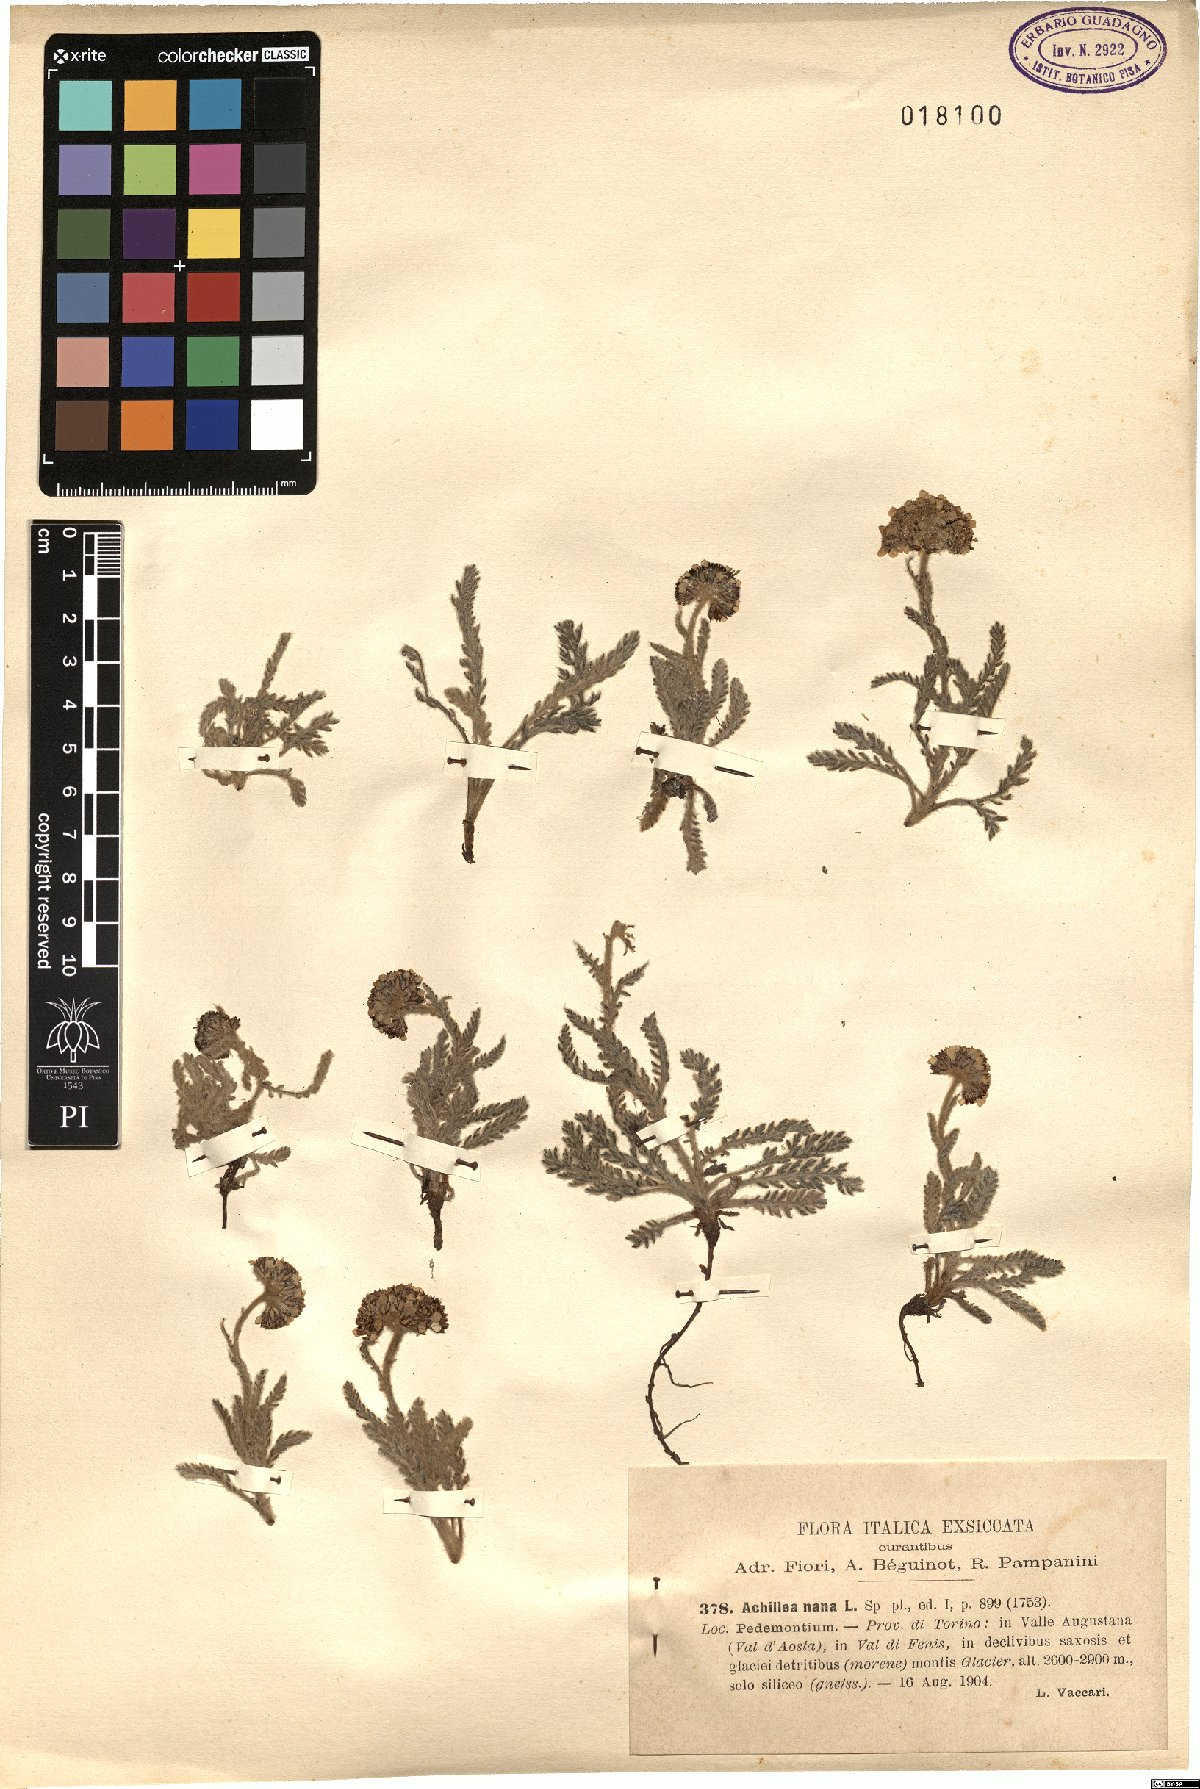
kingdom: Plantae
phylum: Tracheophyta
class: Magnoliopsida
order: Asterales
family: Asteraceae
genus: Achillea
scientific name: Achillea nana
